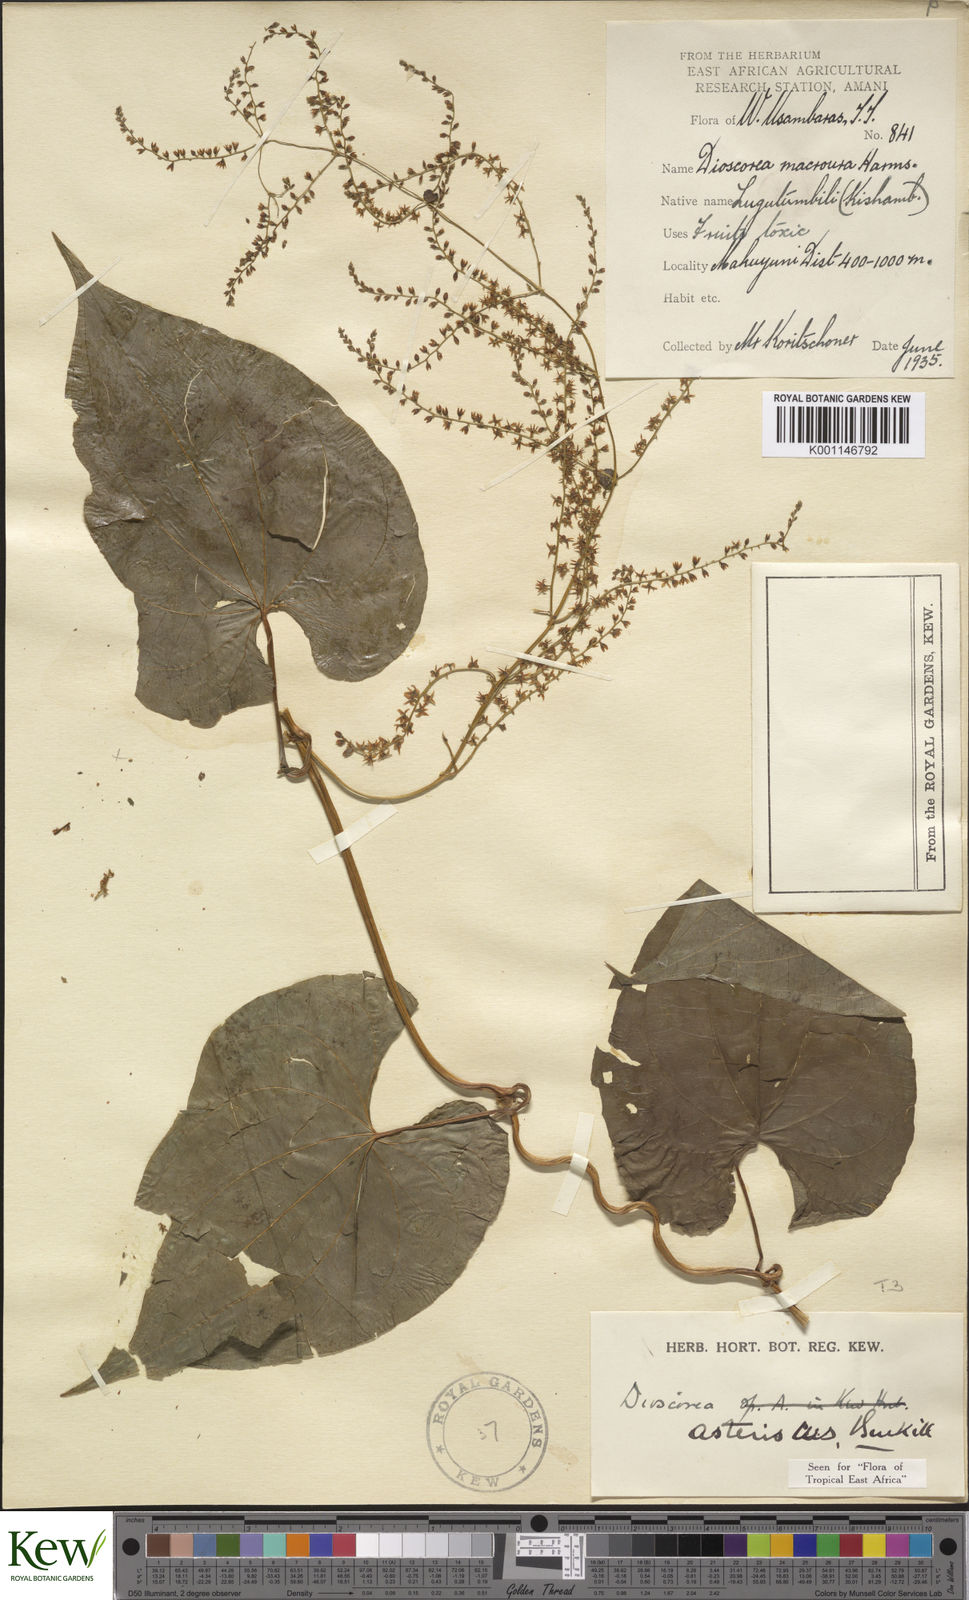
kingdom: Plantae
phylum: Tracheophyta
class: Liliopsida
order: Dioscoreales
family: Dioscoreaceae
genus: Dioscorea
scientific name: Dioscorea asteriscus
